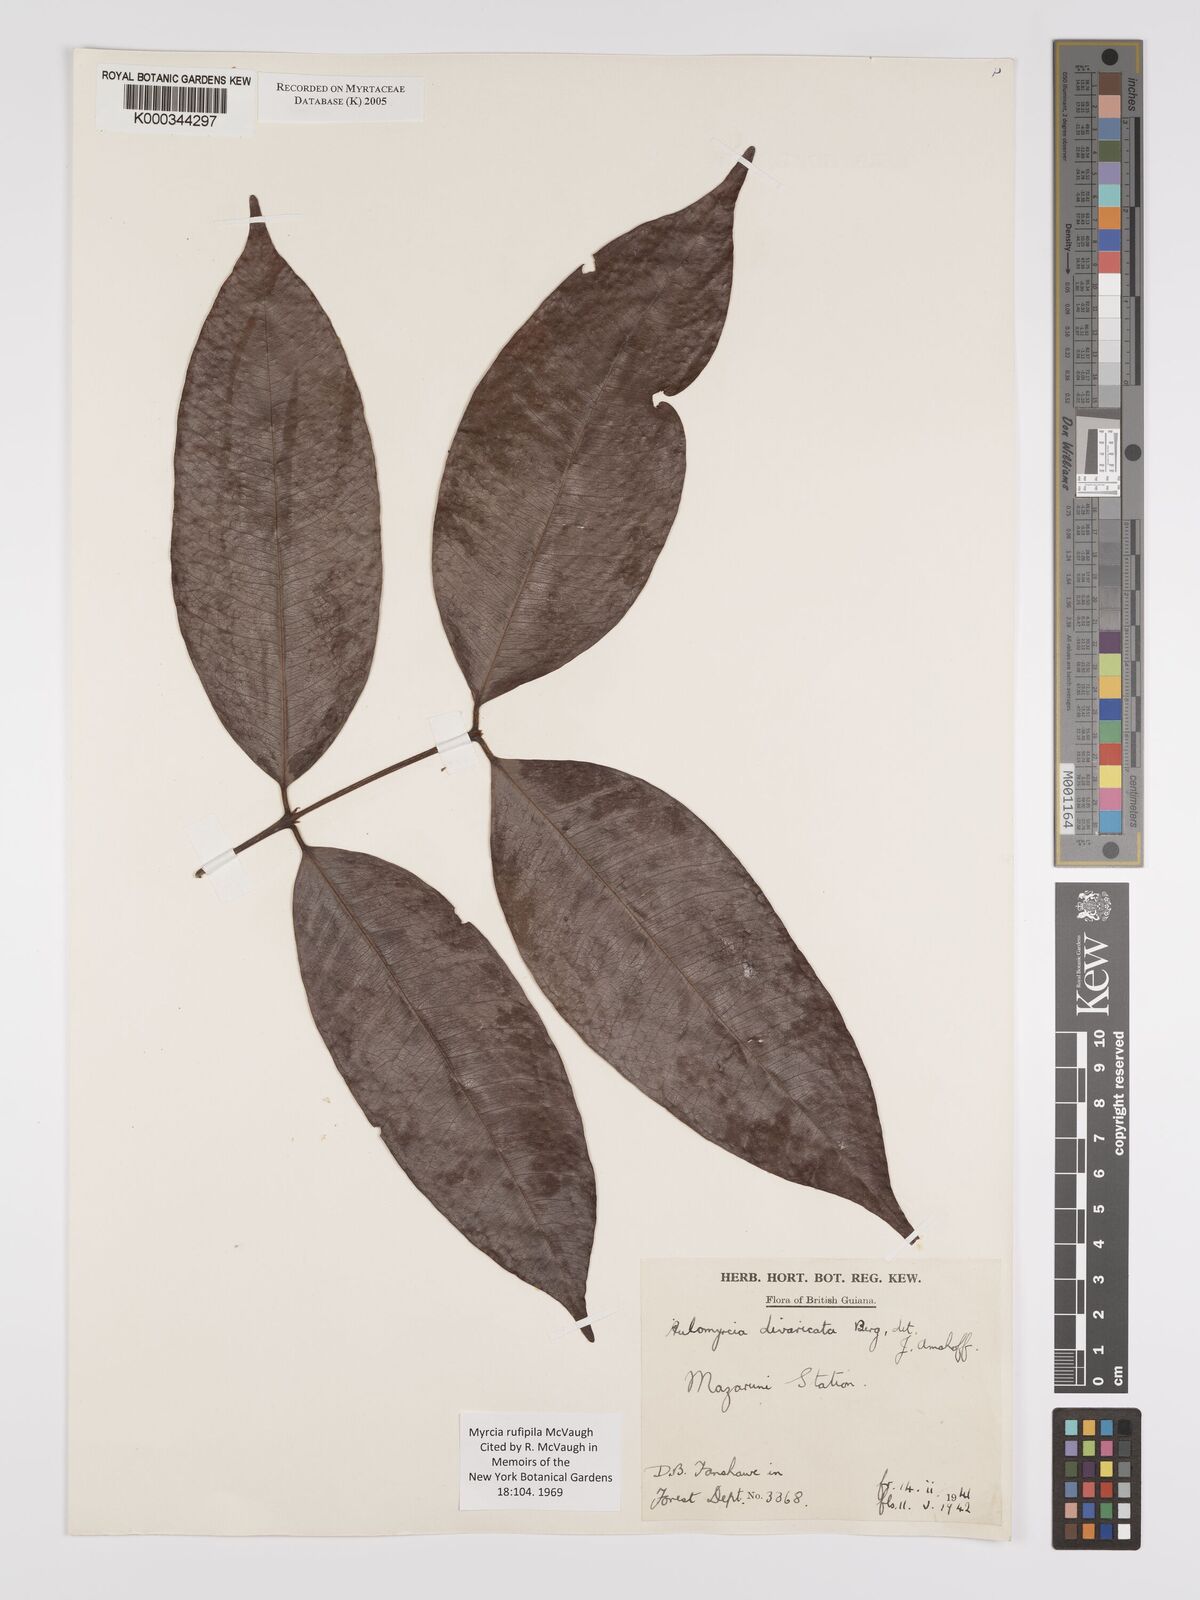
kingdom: Plantae
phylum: Tracheophyta
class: Magnoliopsida
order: Myrtales
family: Myrtaceae
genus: Myrcia
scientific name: Myrcia rufipila
